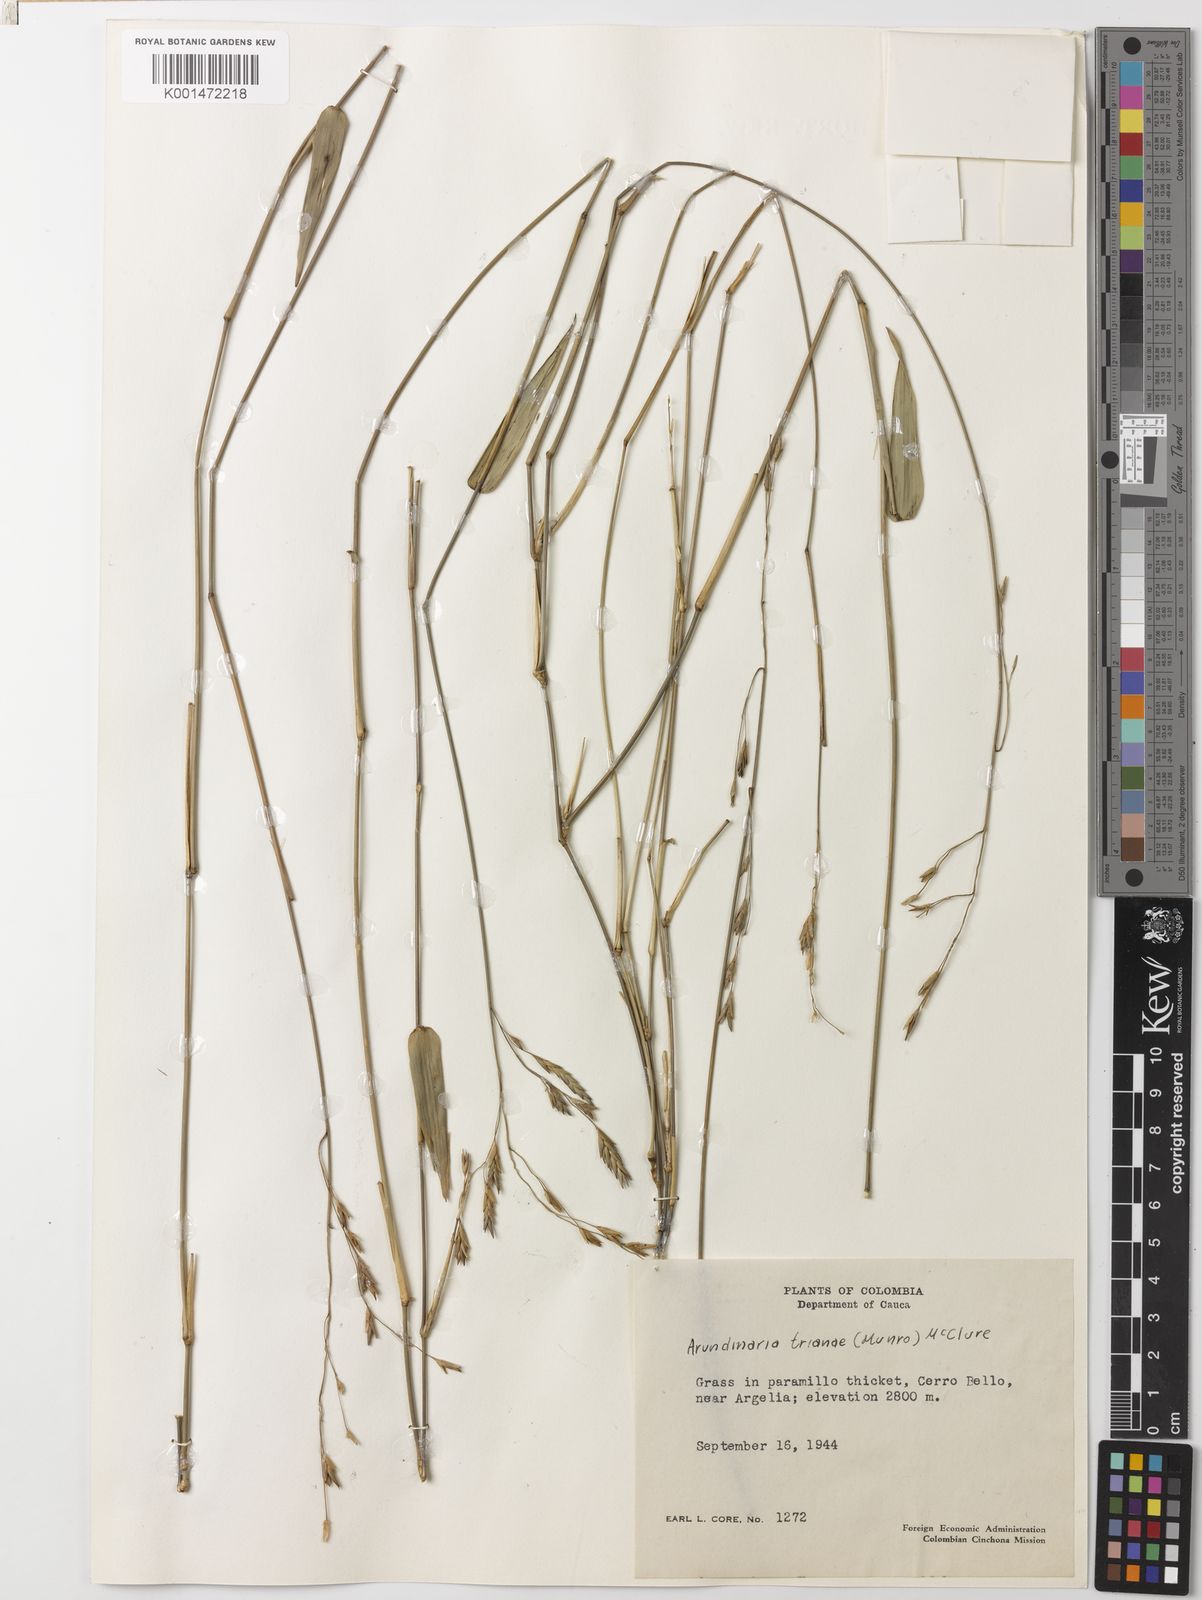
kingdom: Plantae
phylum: Tracheophyta
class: Liliopsida
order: Poales
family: Poaceae
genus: Aulonemia
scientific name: Aulonemia trianae
